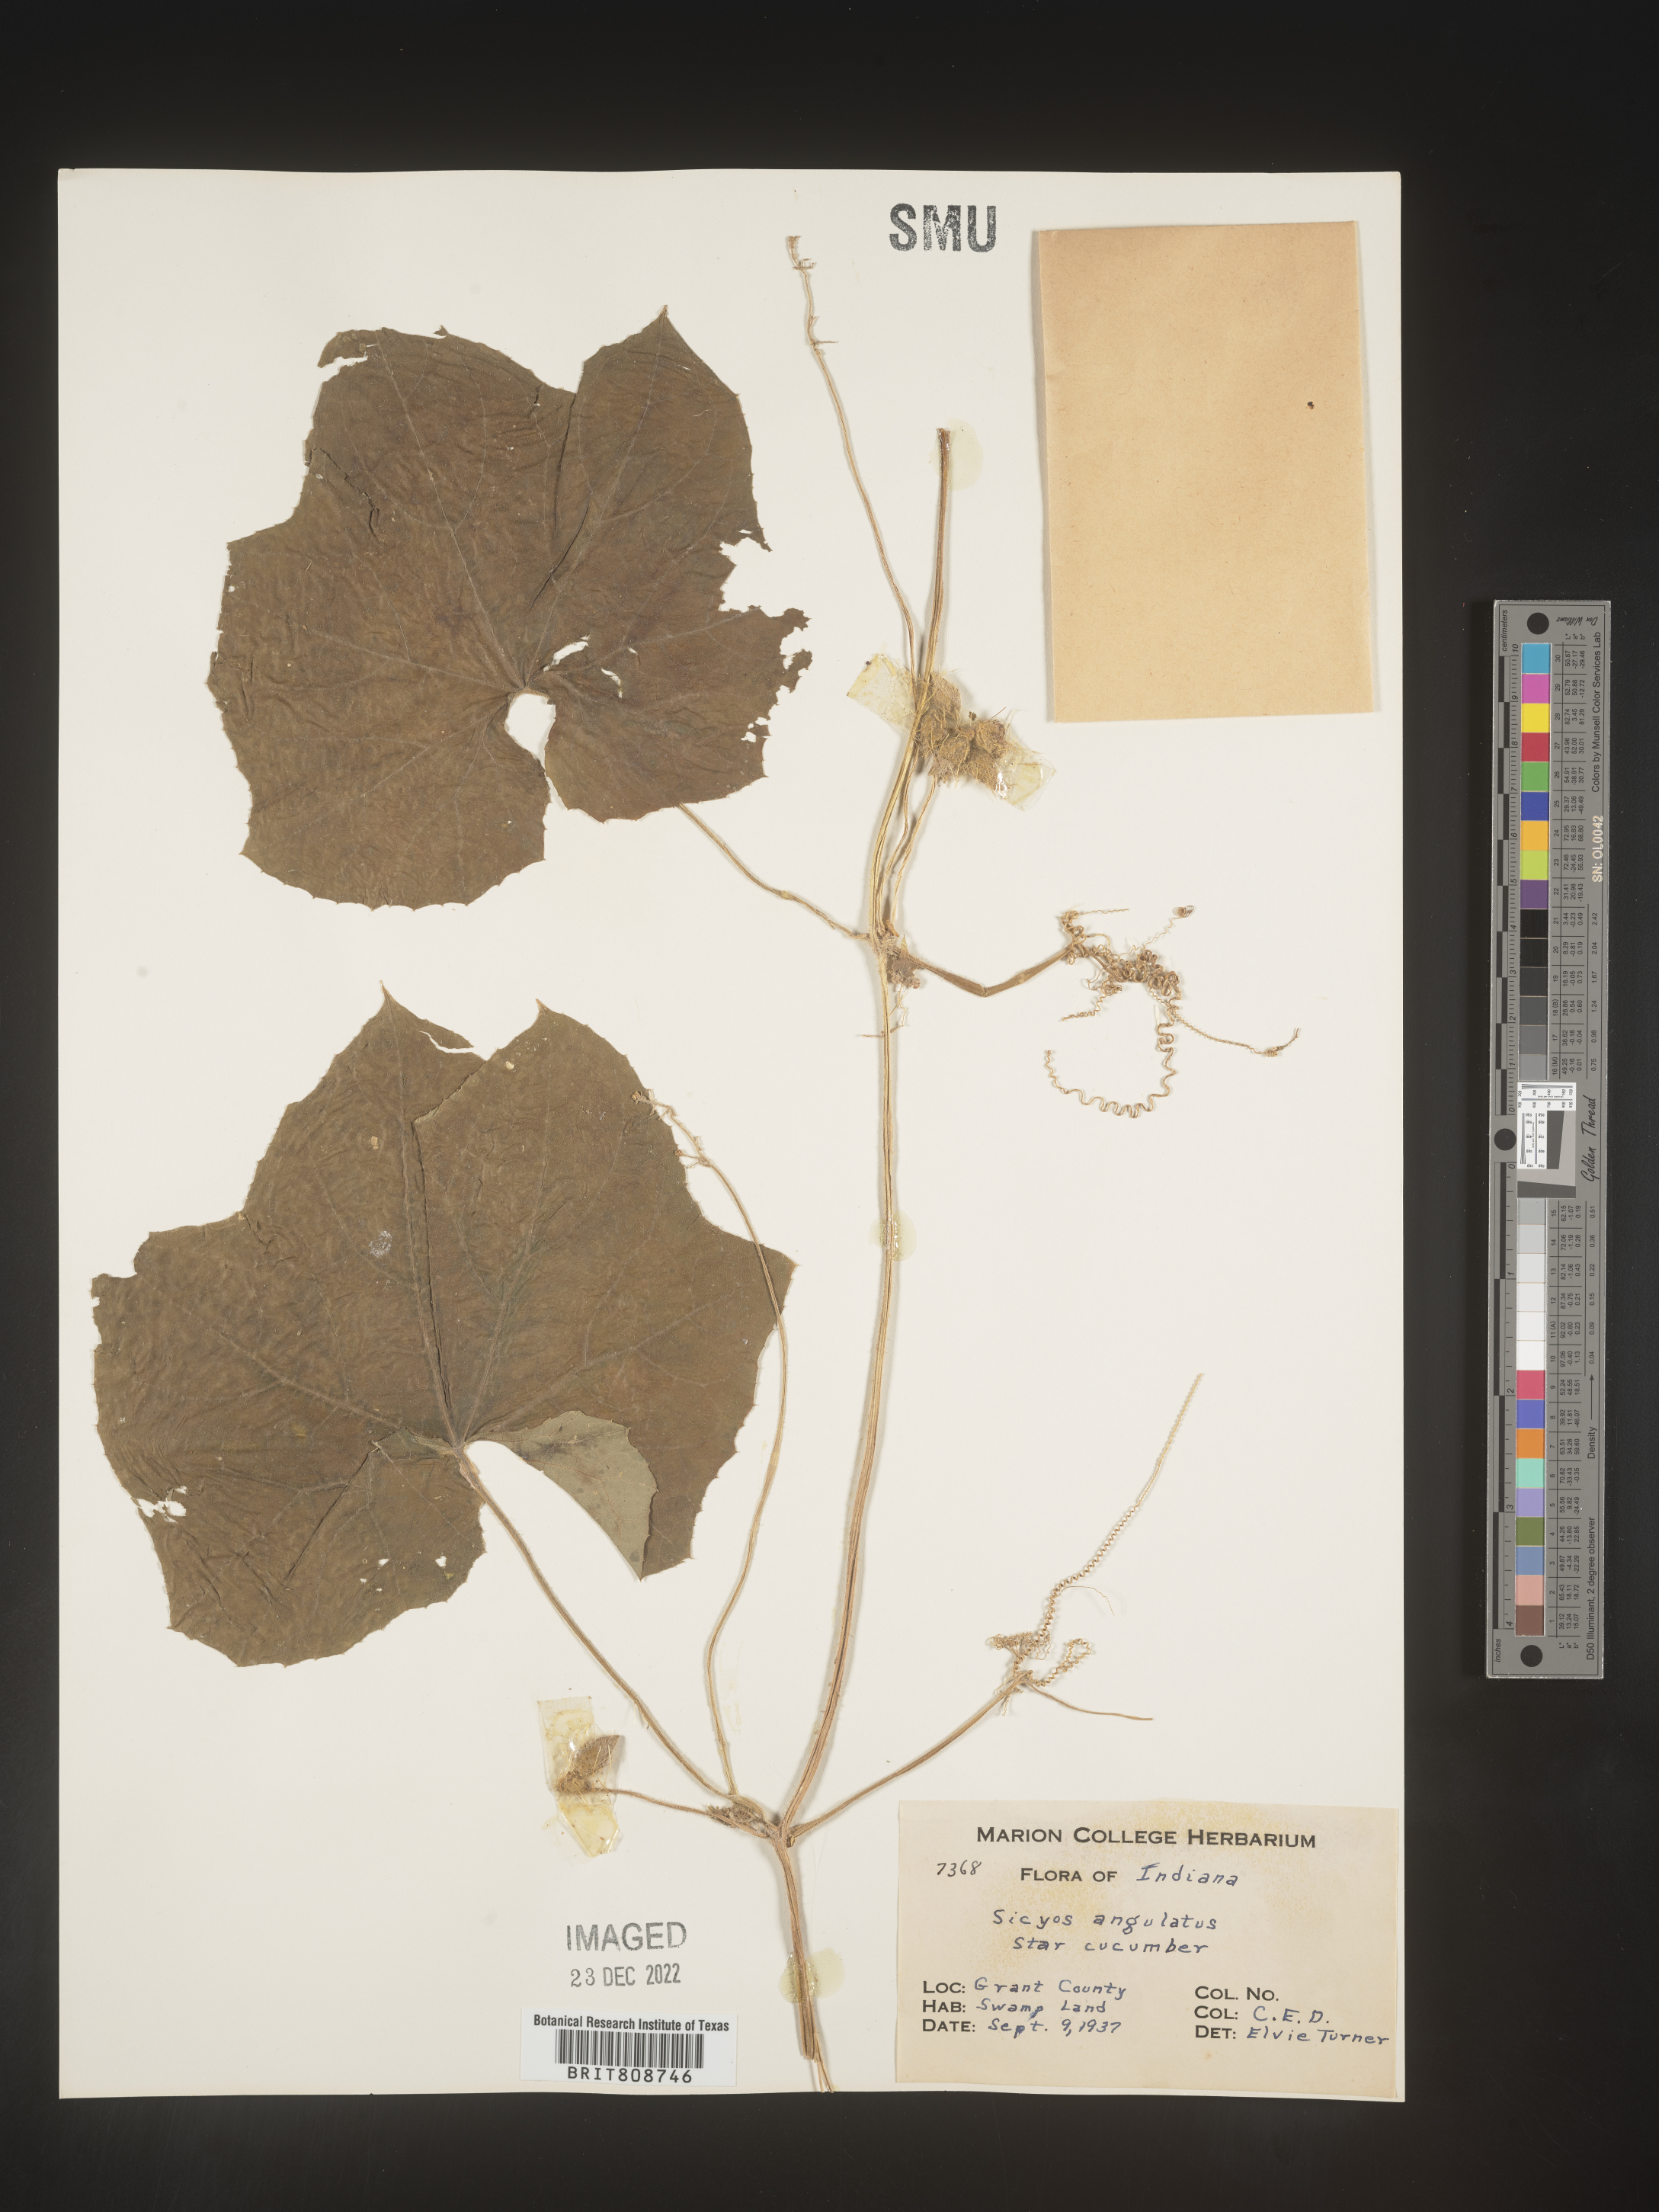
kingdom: Plantae
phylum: Tracheophyta
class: Magnoliopsida
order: Cucurbitales
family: Cucurbitaceae
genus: Sicyos
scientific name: Sicyos angulatus
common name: Angled burr cucumber
